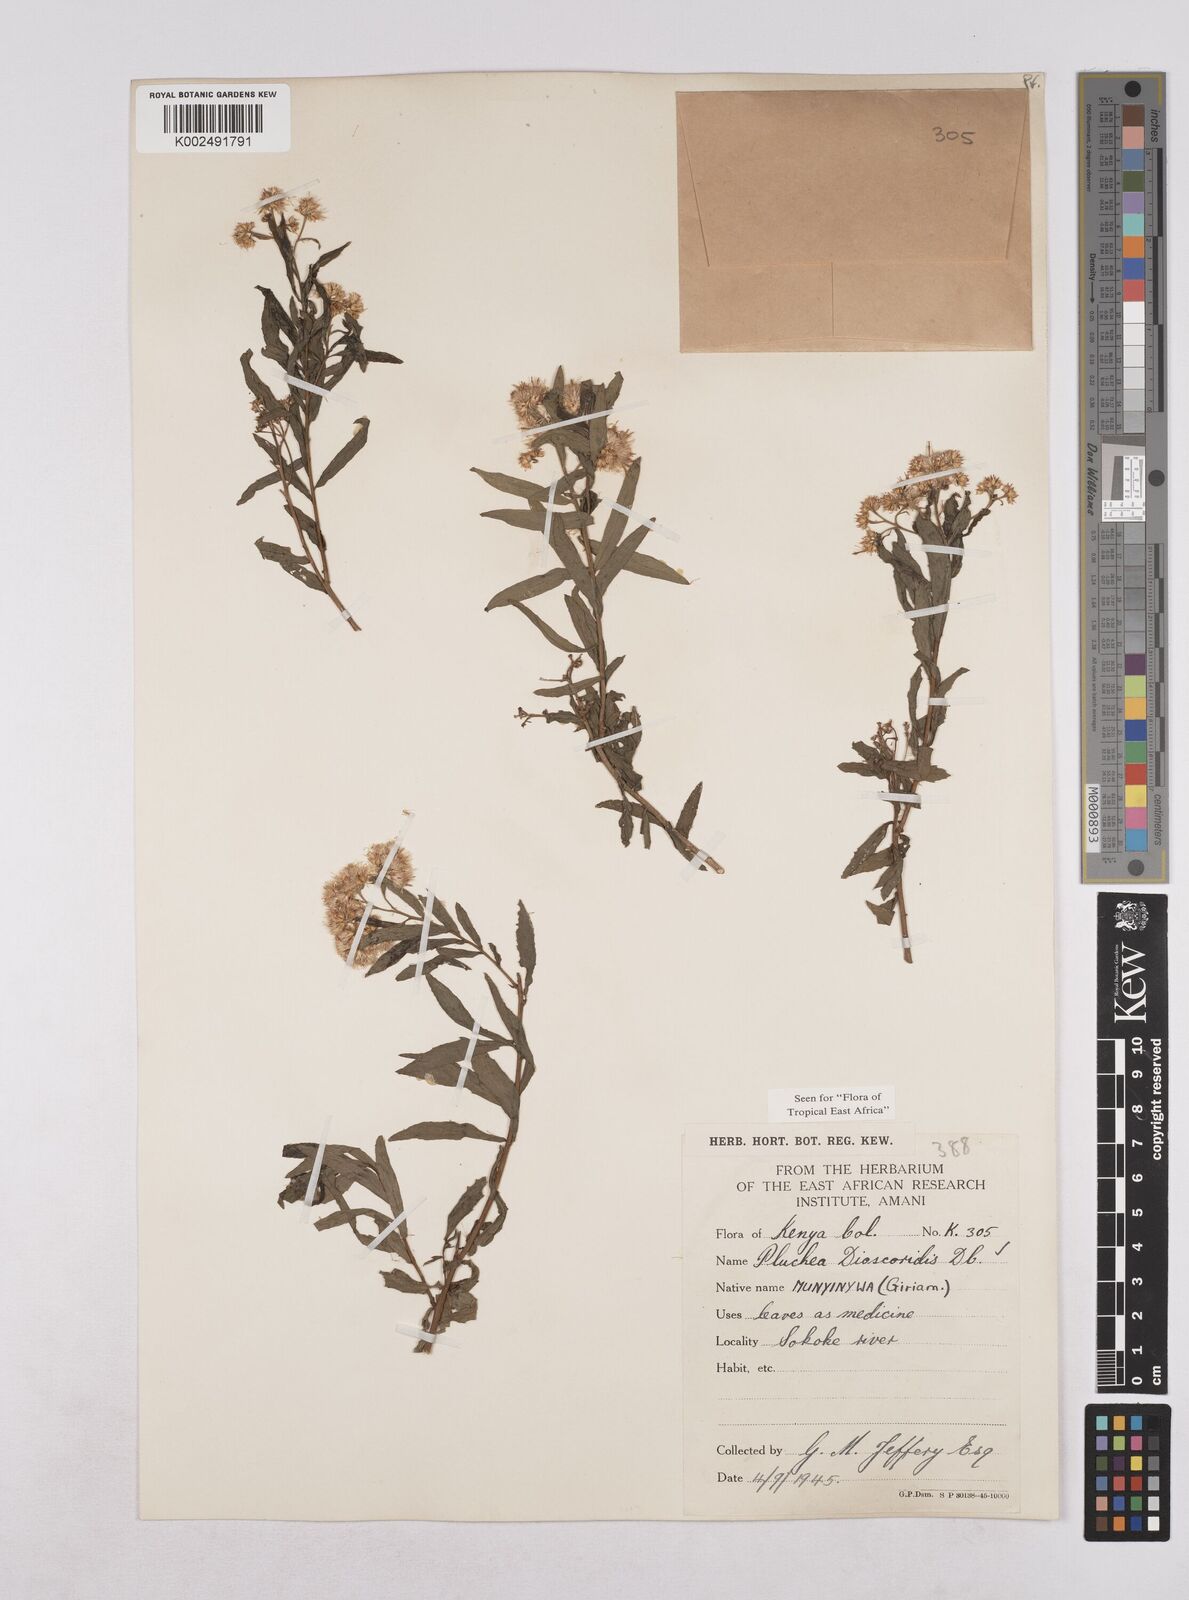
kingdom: Plantae
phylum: Tracheophyta
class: Magnoliopsida
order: Asterales
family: Asteraceae
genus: Pluchea
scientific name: Pluchea dioscoridis
